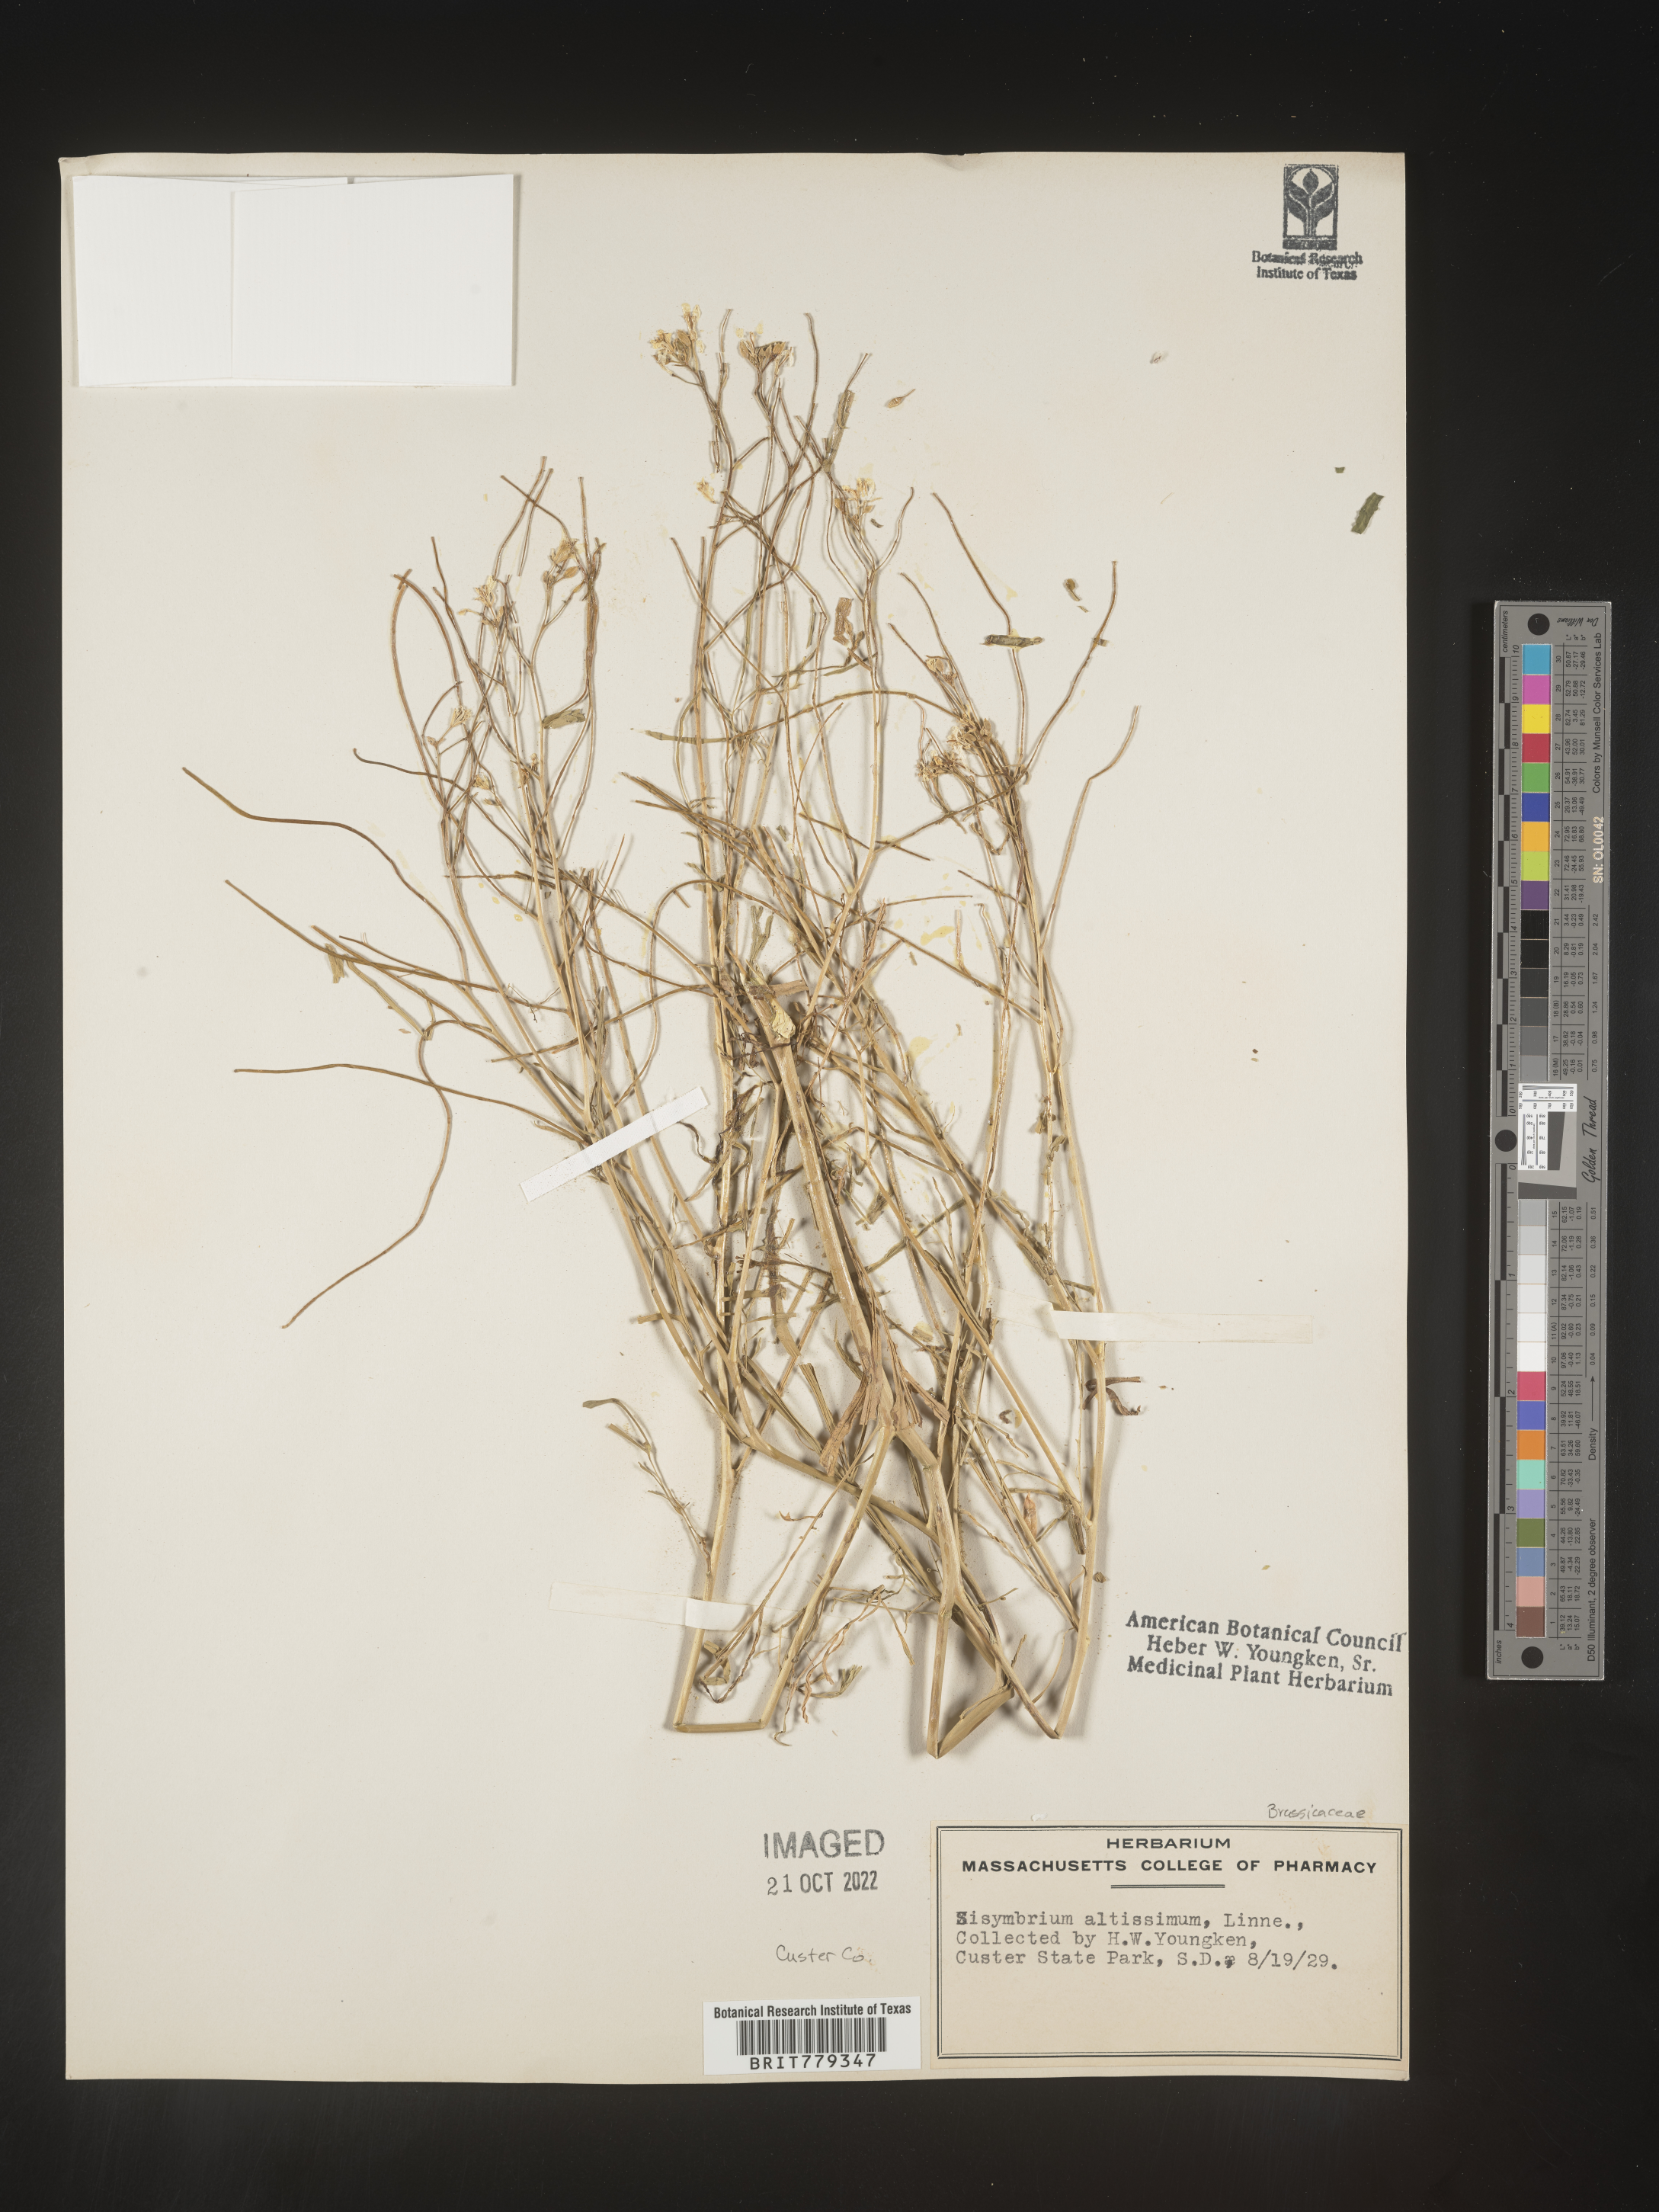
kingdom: Plantae
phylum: Tracheophyta
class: Magnoliopsida
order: Brassicales
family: Brassicaceae
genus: Sisymbrium
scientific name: Sisymbrium altissimum
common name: Tall rocket
